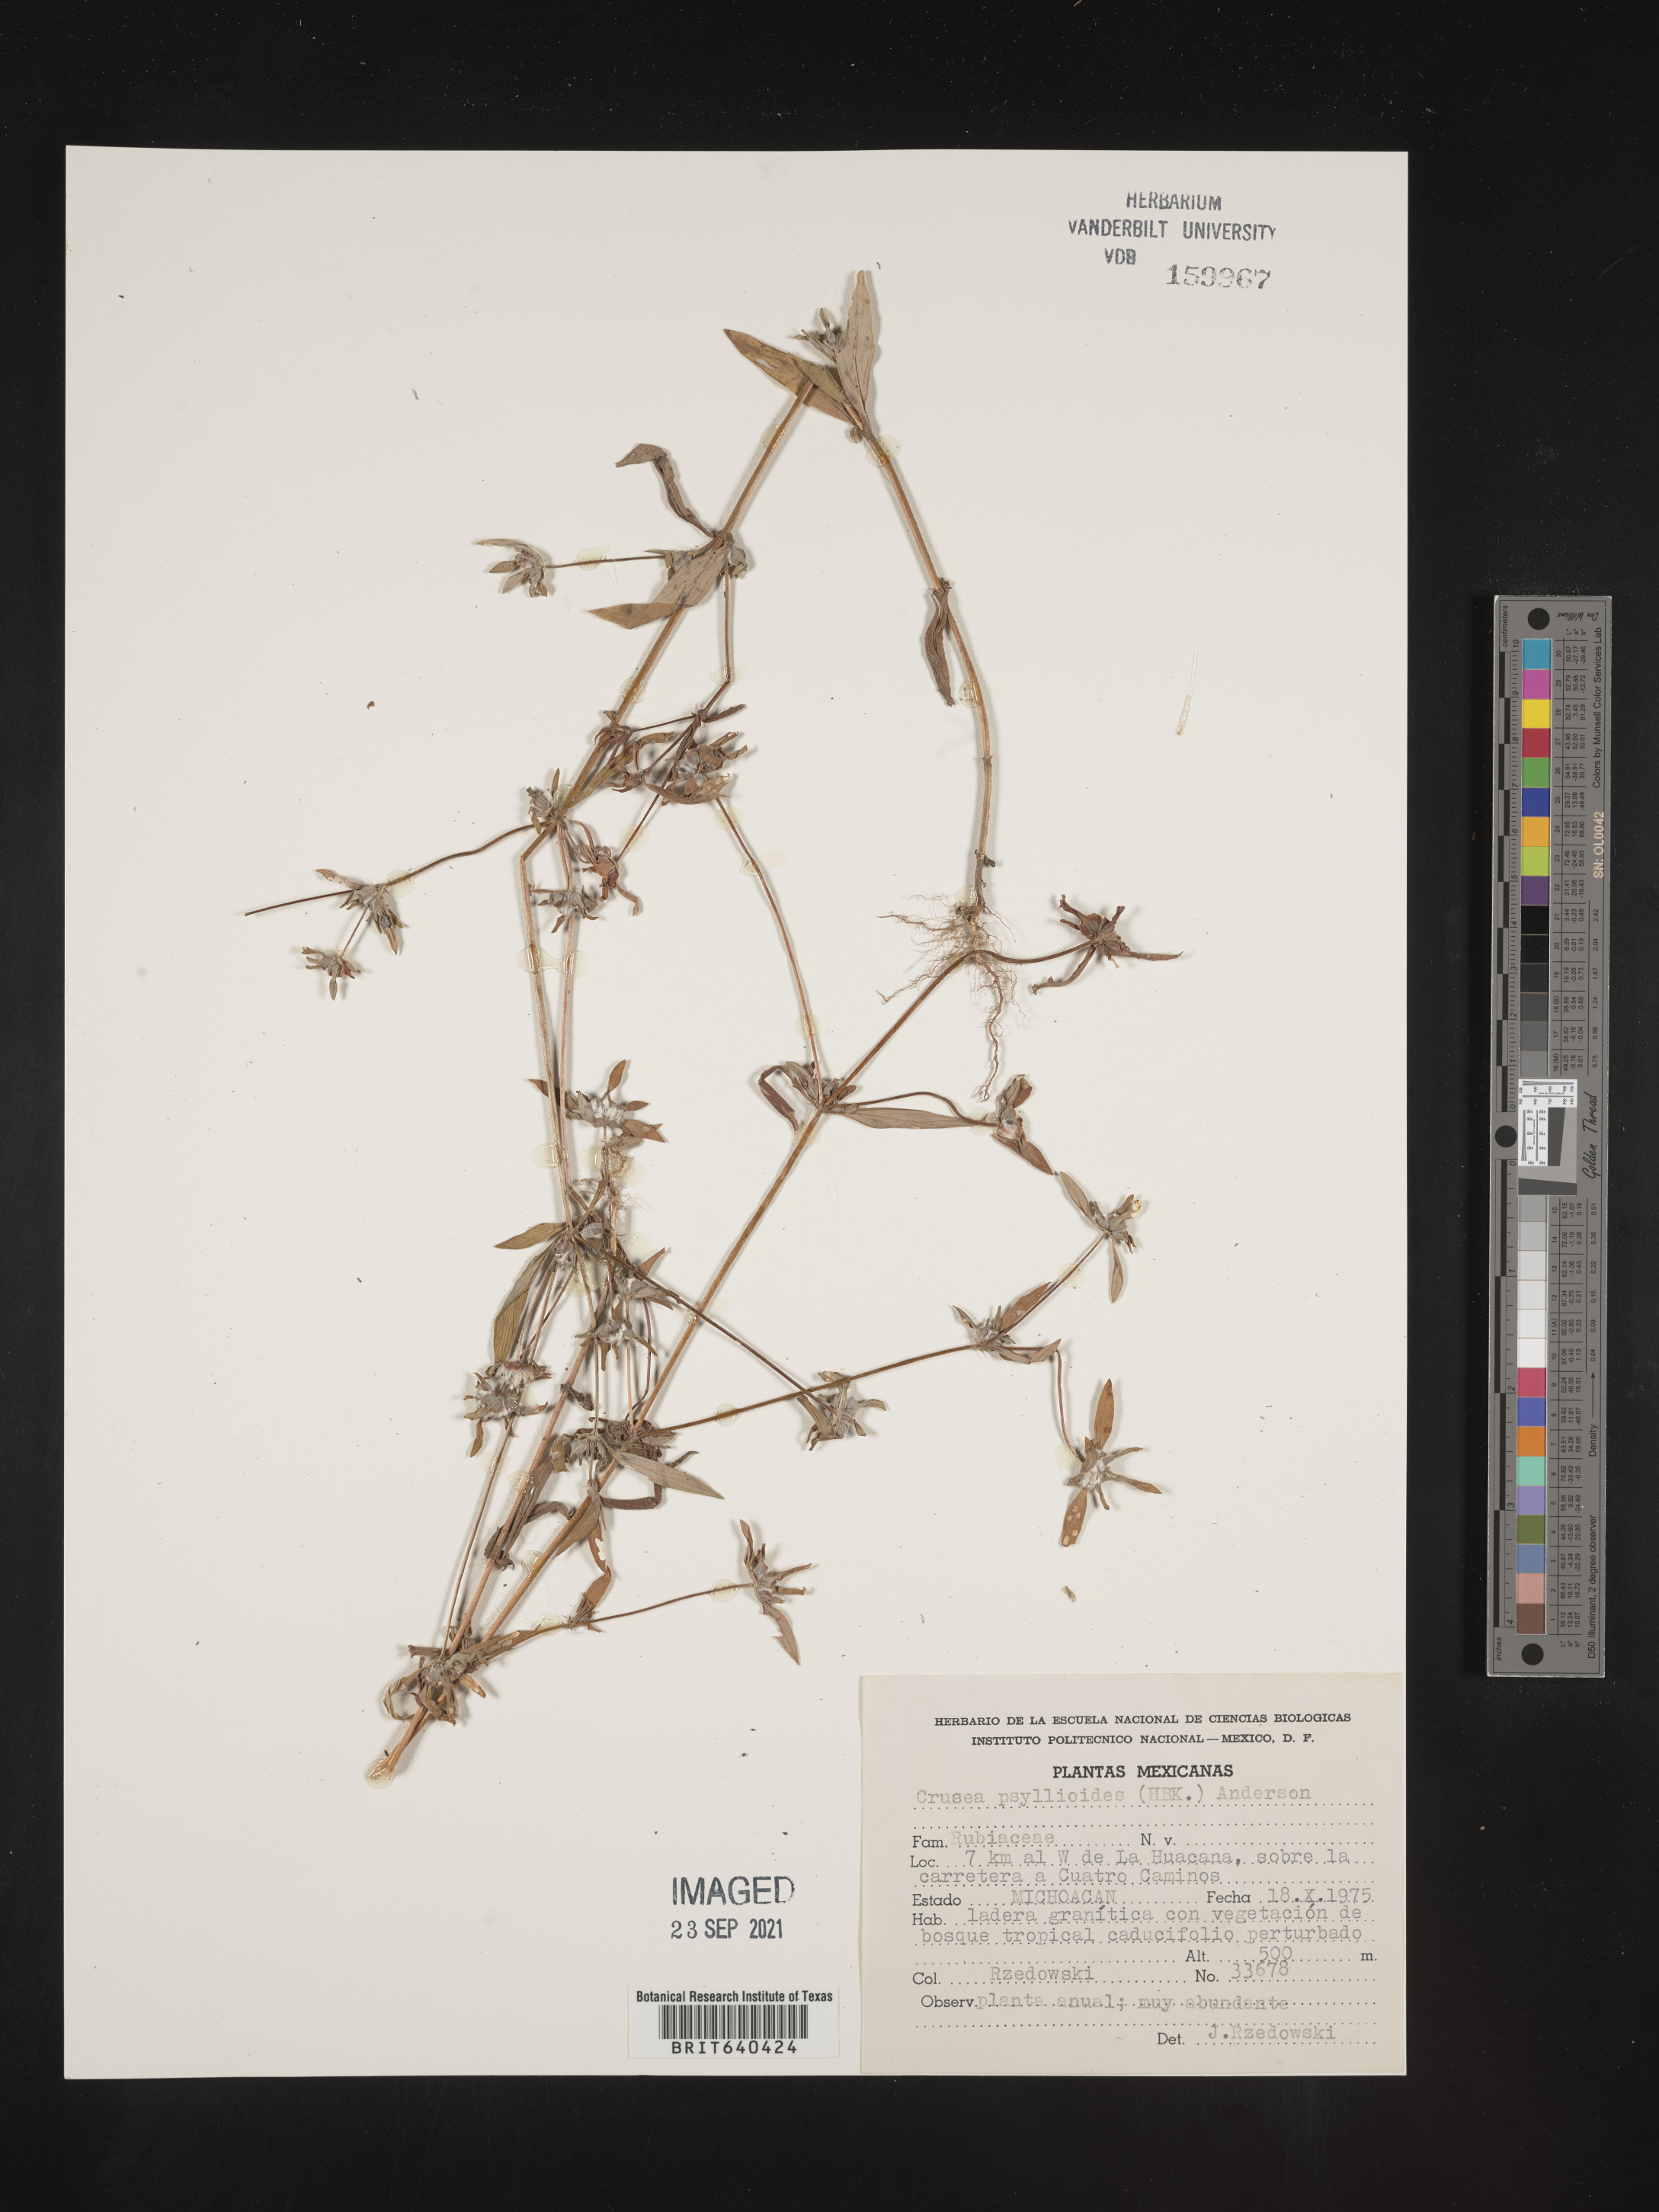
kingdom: Plantae
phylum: Tracheophyta
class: Magnoliopsida
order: Gentianales
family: Rubiaceae
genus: Crusea
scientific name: Crusea
